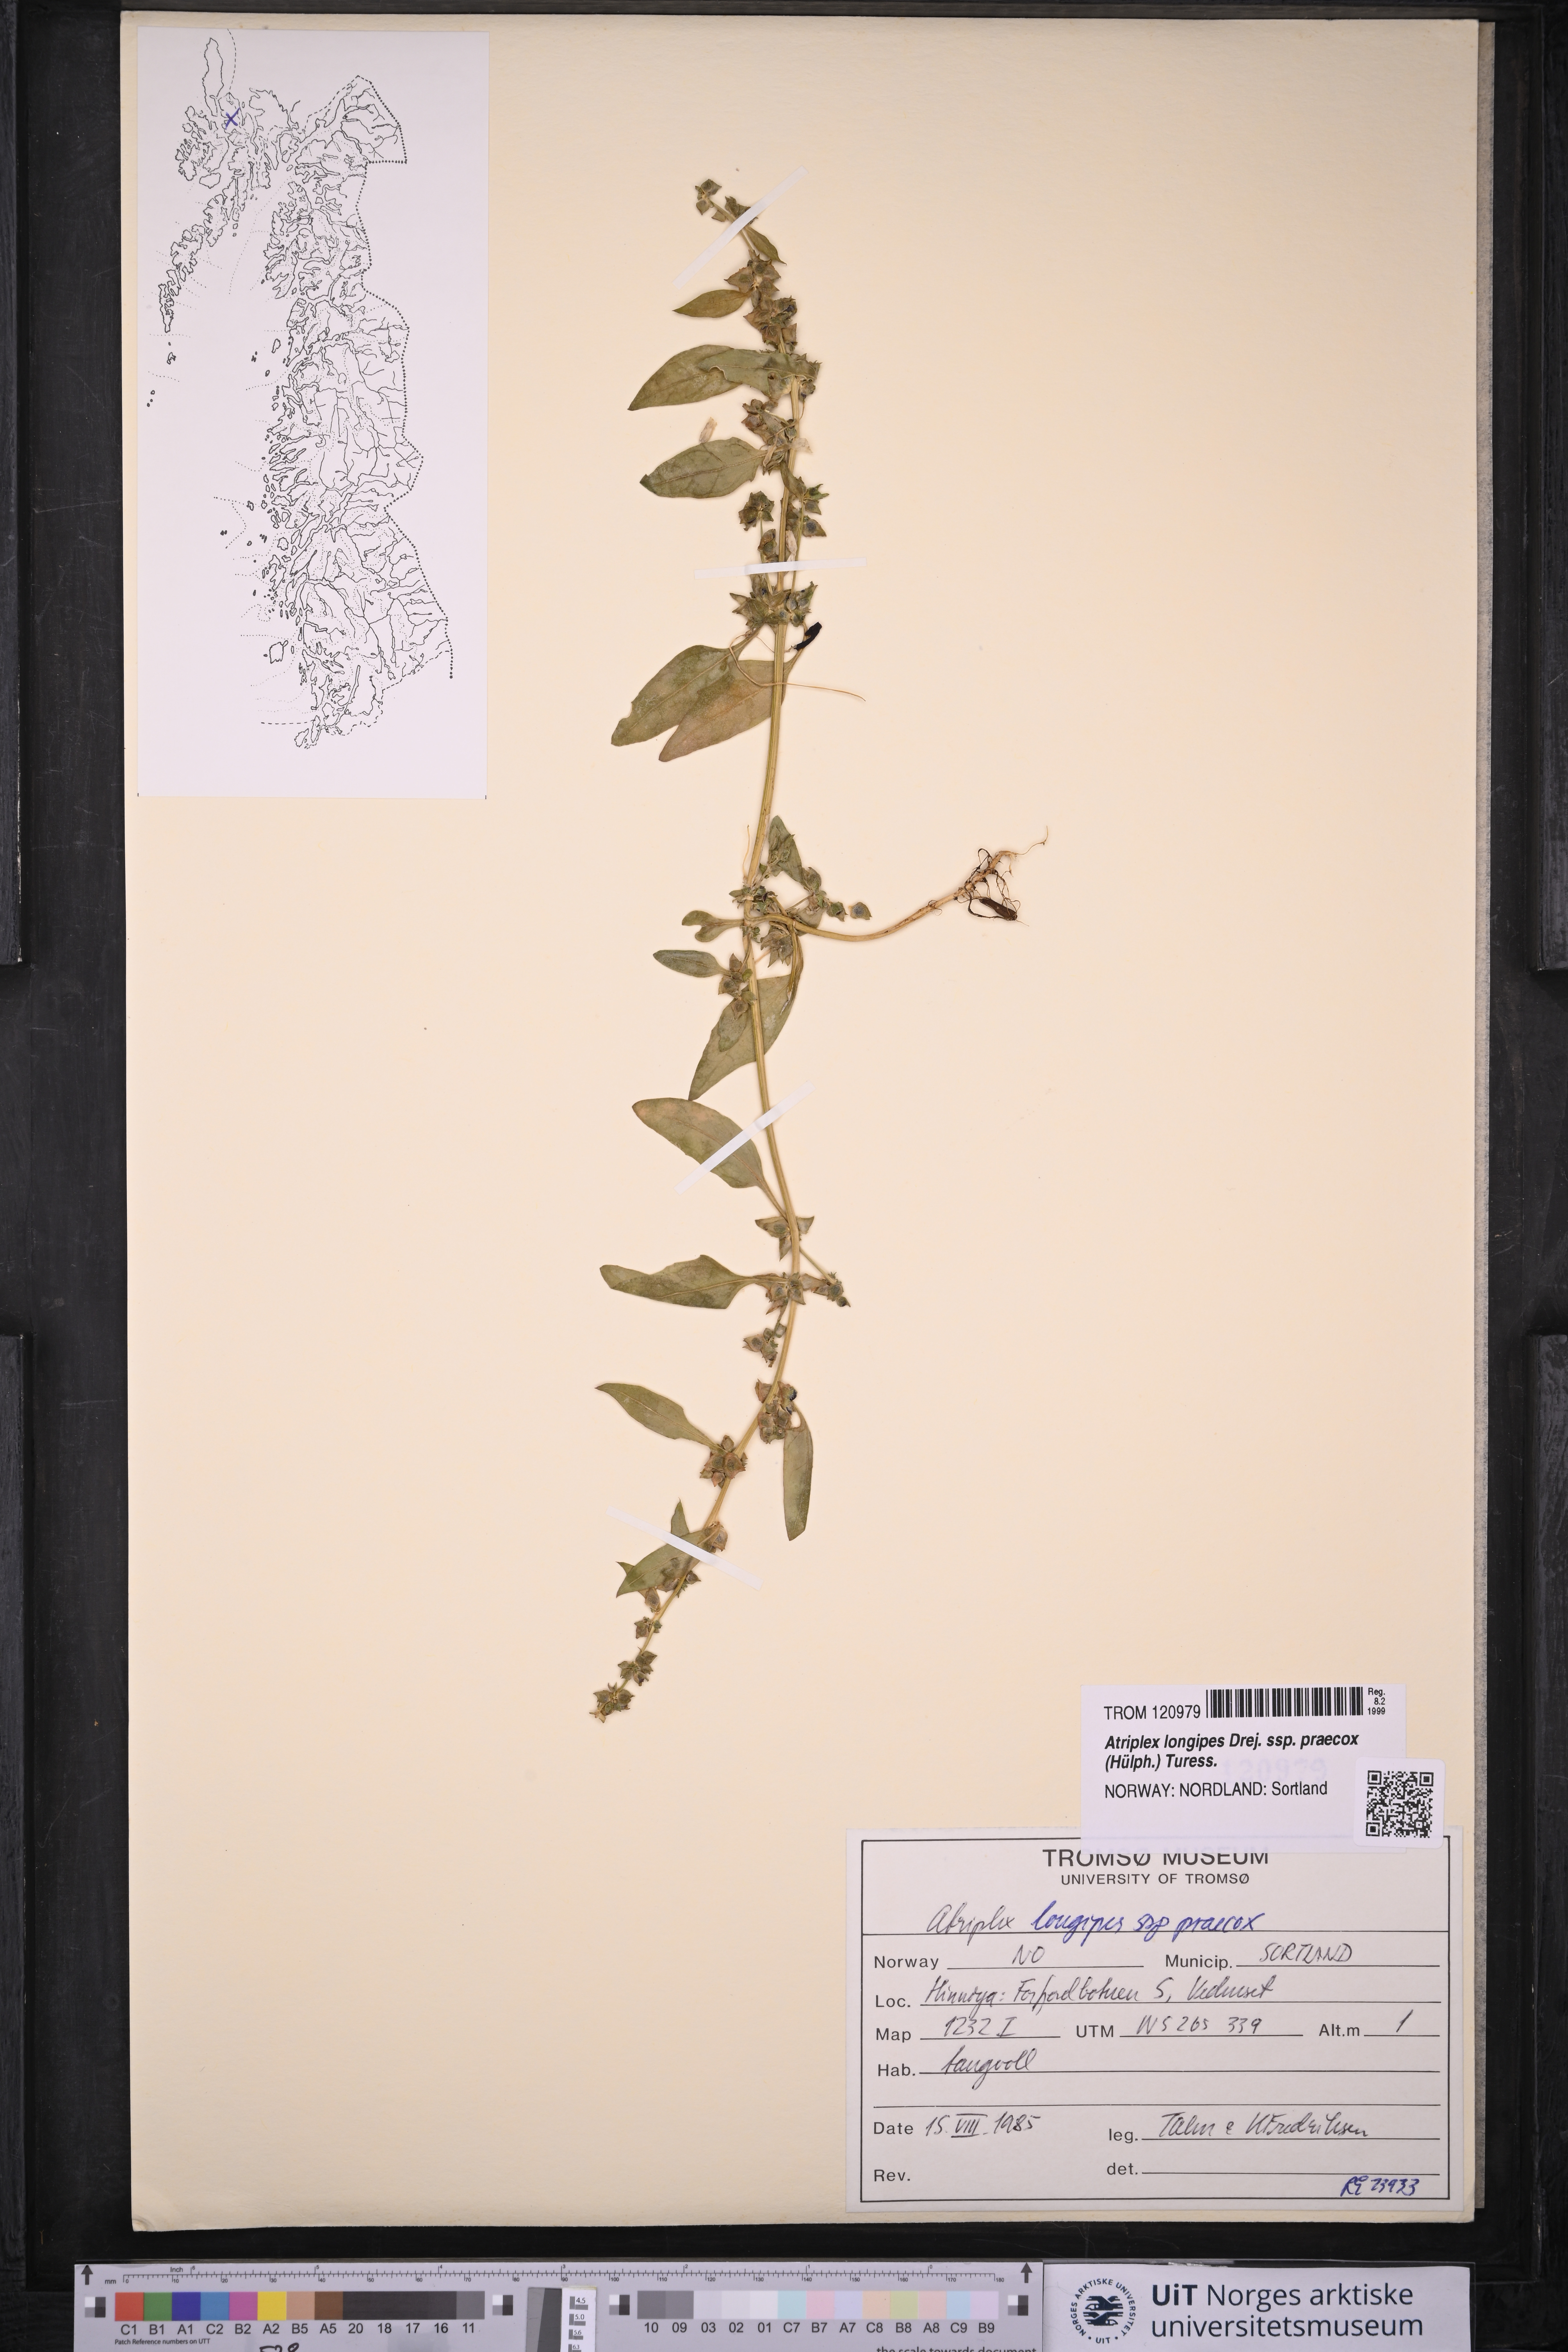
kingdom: Plantae
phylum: Tracheophyta
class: Magnoliopsida
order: Caryophyllales
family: Amaranthaceae
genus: Atriplex
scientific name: Atriplex praecox
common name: Early orache
